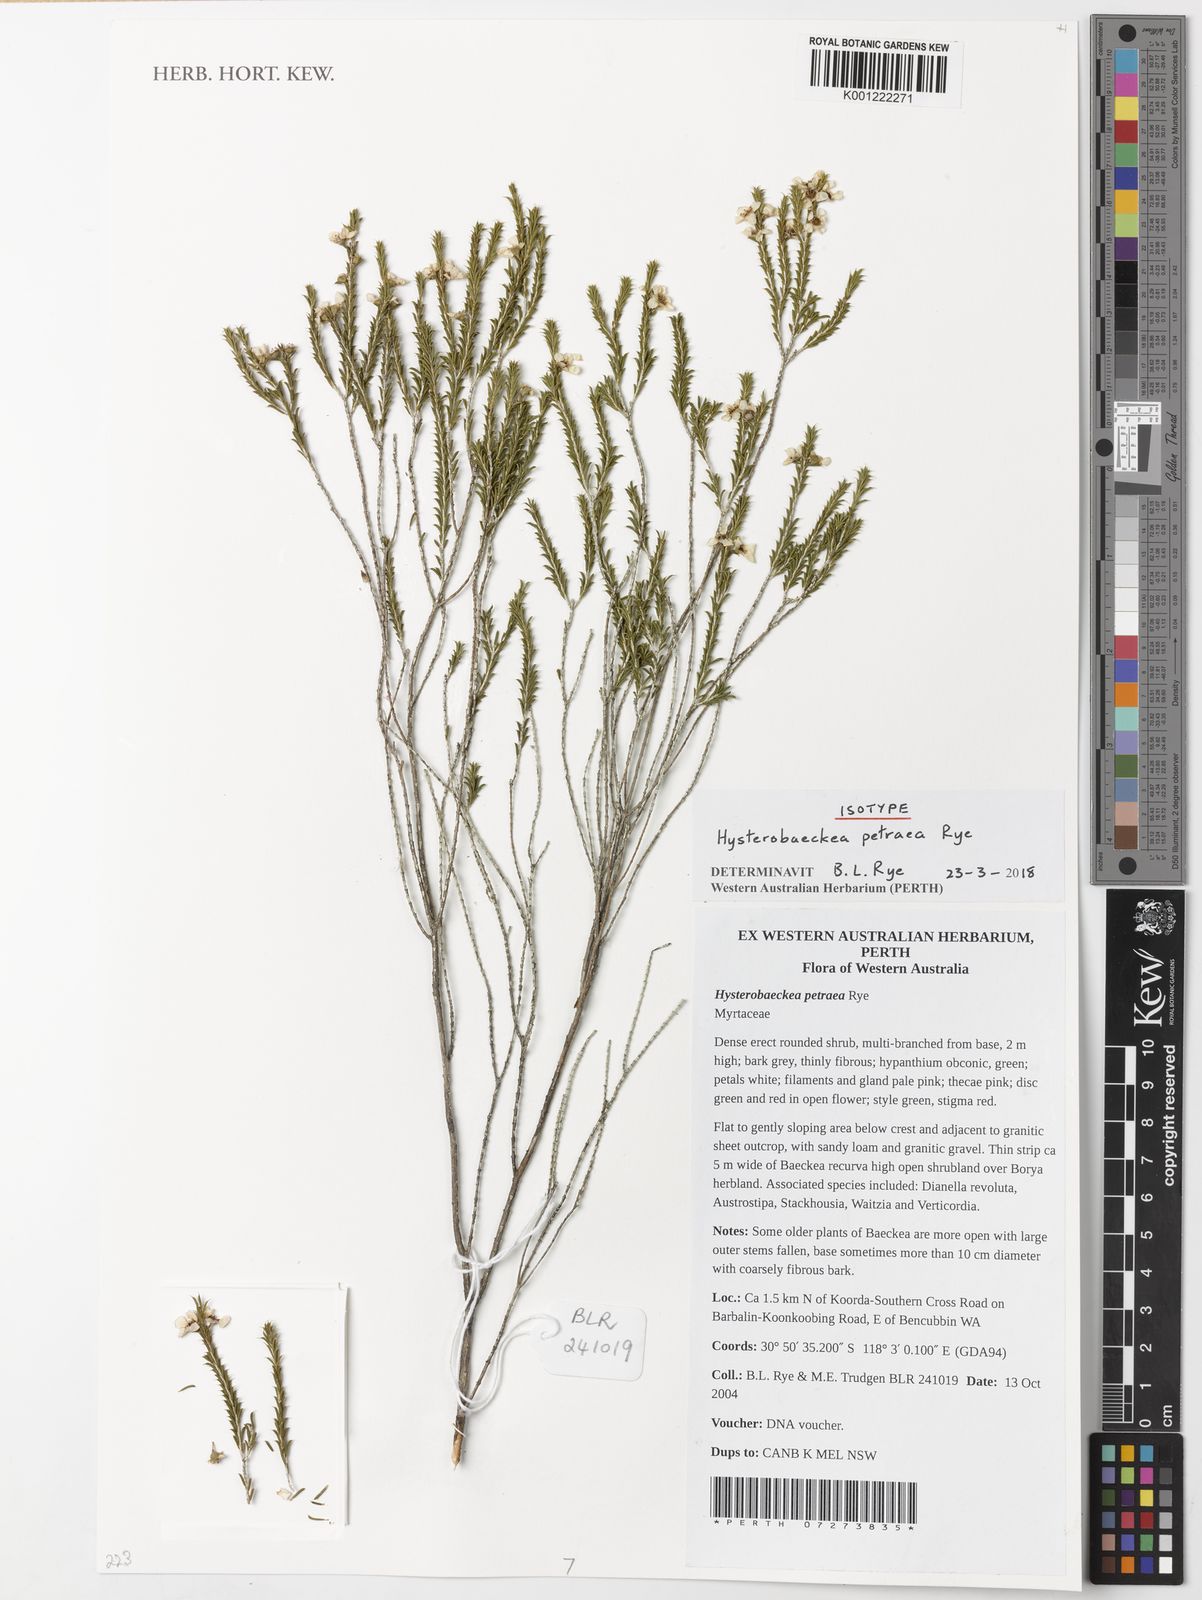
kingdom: Plantae
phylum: Tracheophyta
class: Magnoliopsida
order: Myrtales
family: Myrtaceae
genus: Hysterobaeckea
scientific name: Hysterobaeckea petraea
